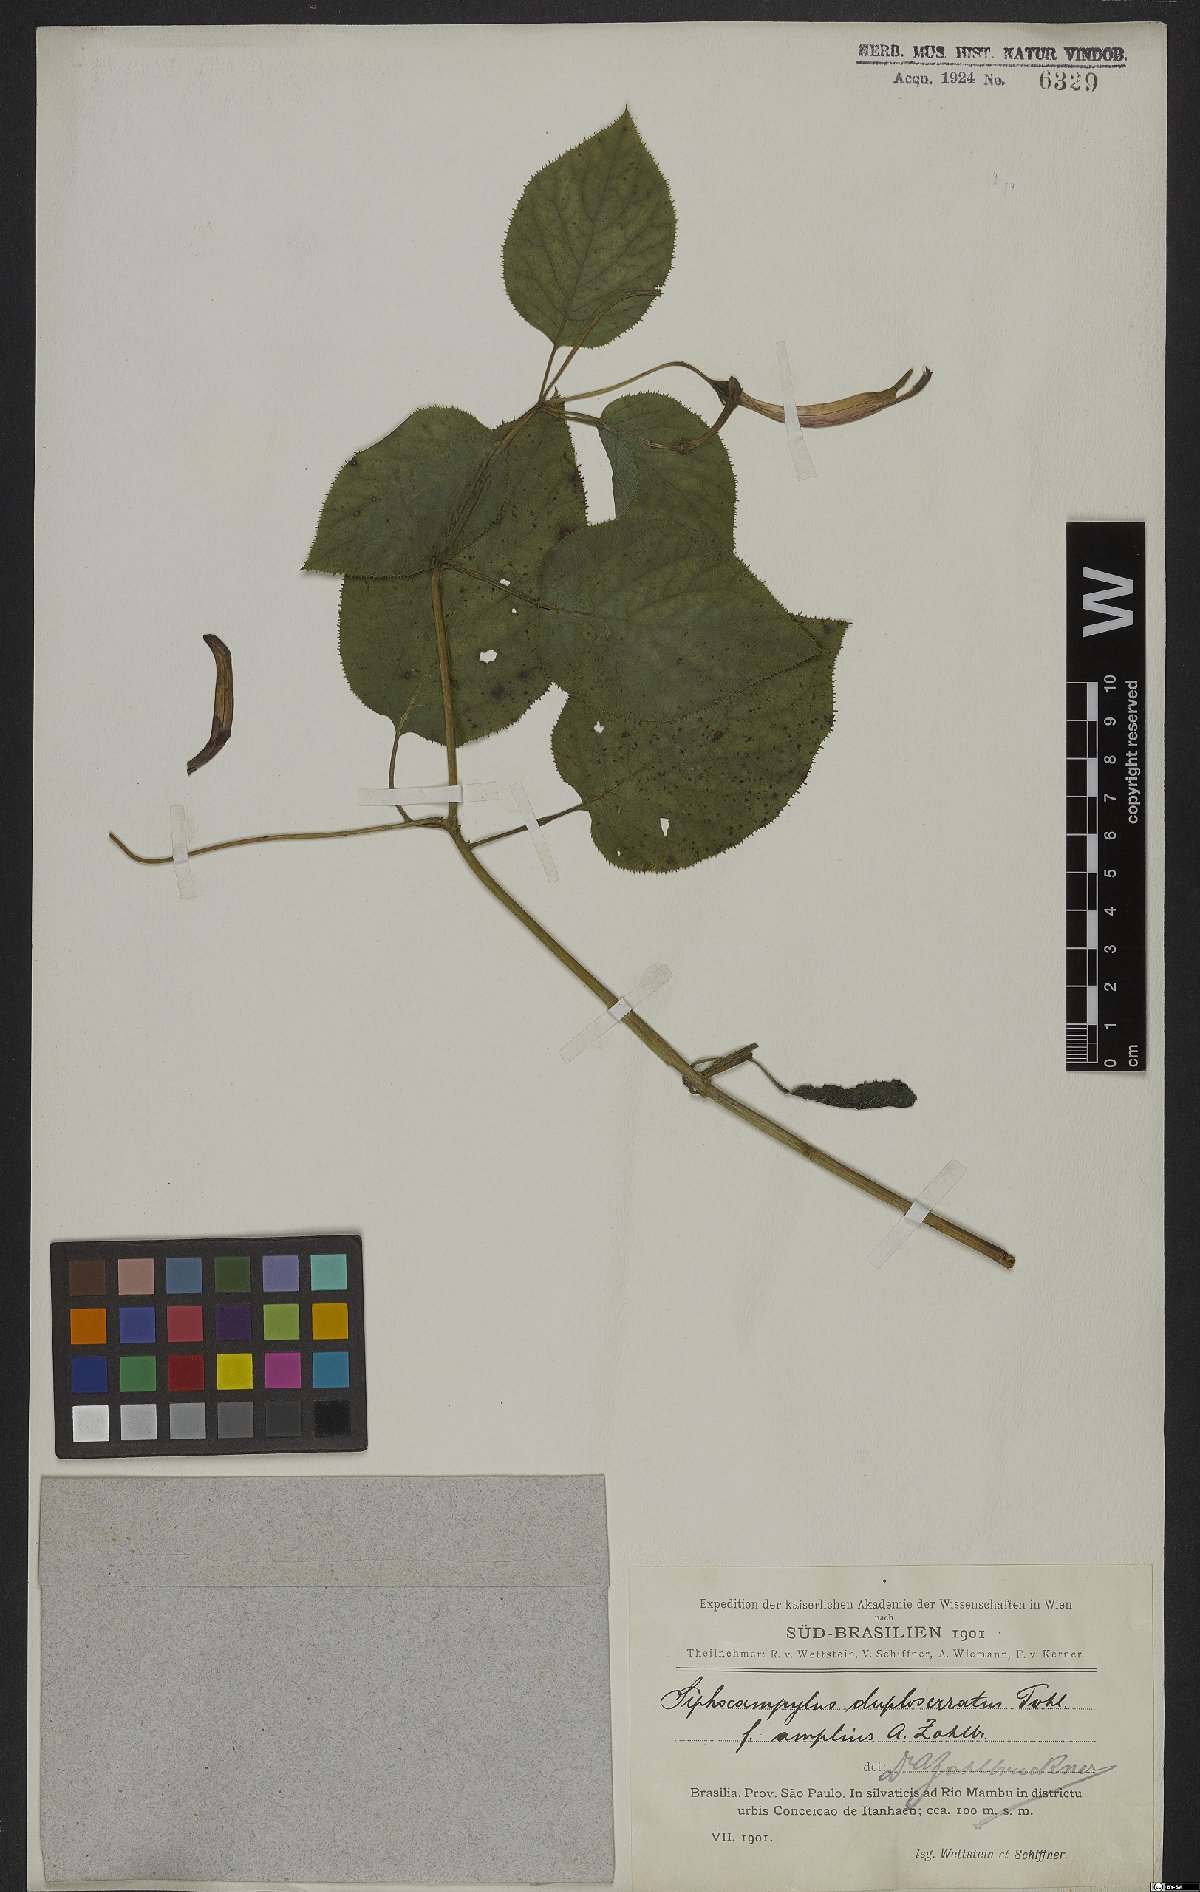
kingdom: Plantae
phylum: Tracheophyta
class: Magnoliopsida
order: Asterales
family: Campanulaceae
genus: Siphocampylus
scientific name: Siphocampylus fluminensis
